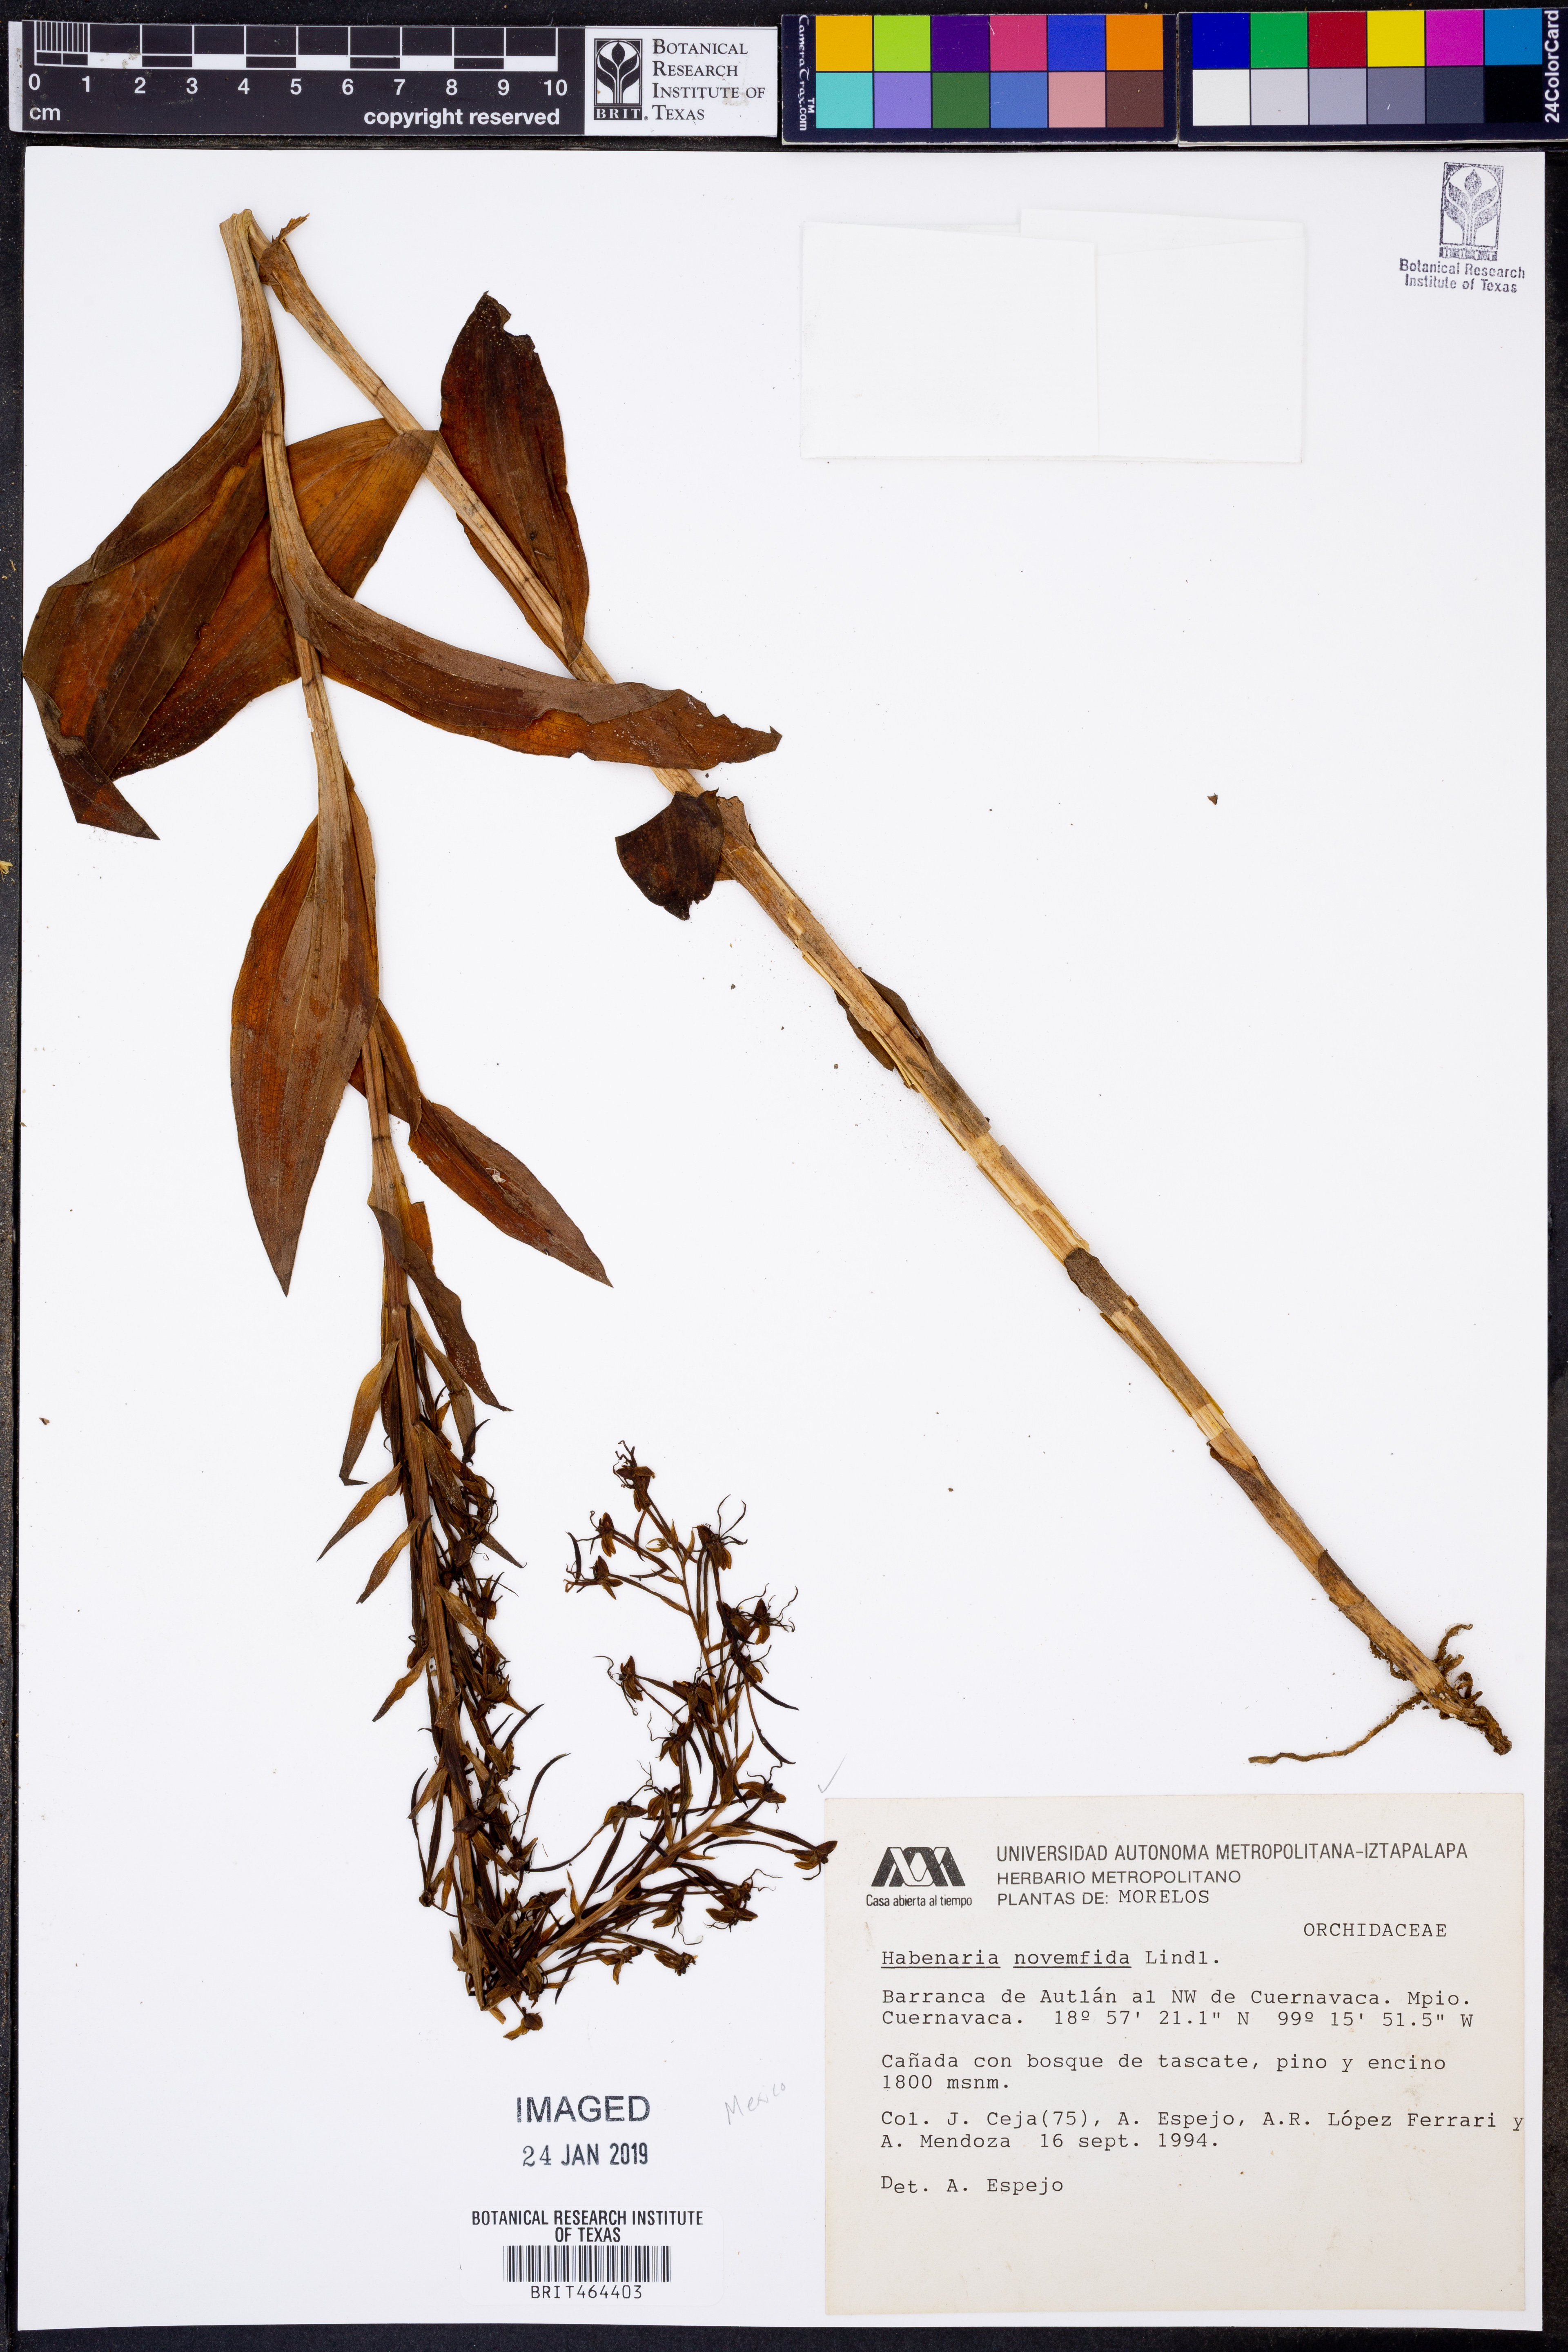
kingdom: Plantae
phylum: Tracheophyta
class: Liliopsida
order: Asparagales
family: Orchidaceae
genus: Habenaria
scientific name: Habenaria novemfida
